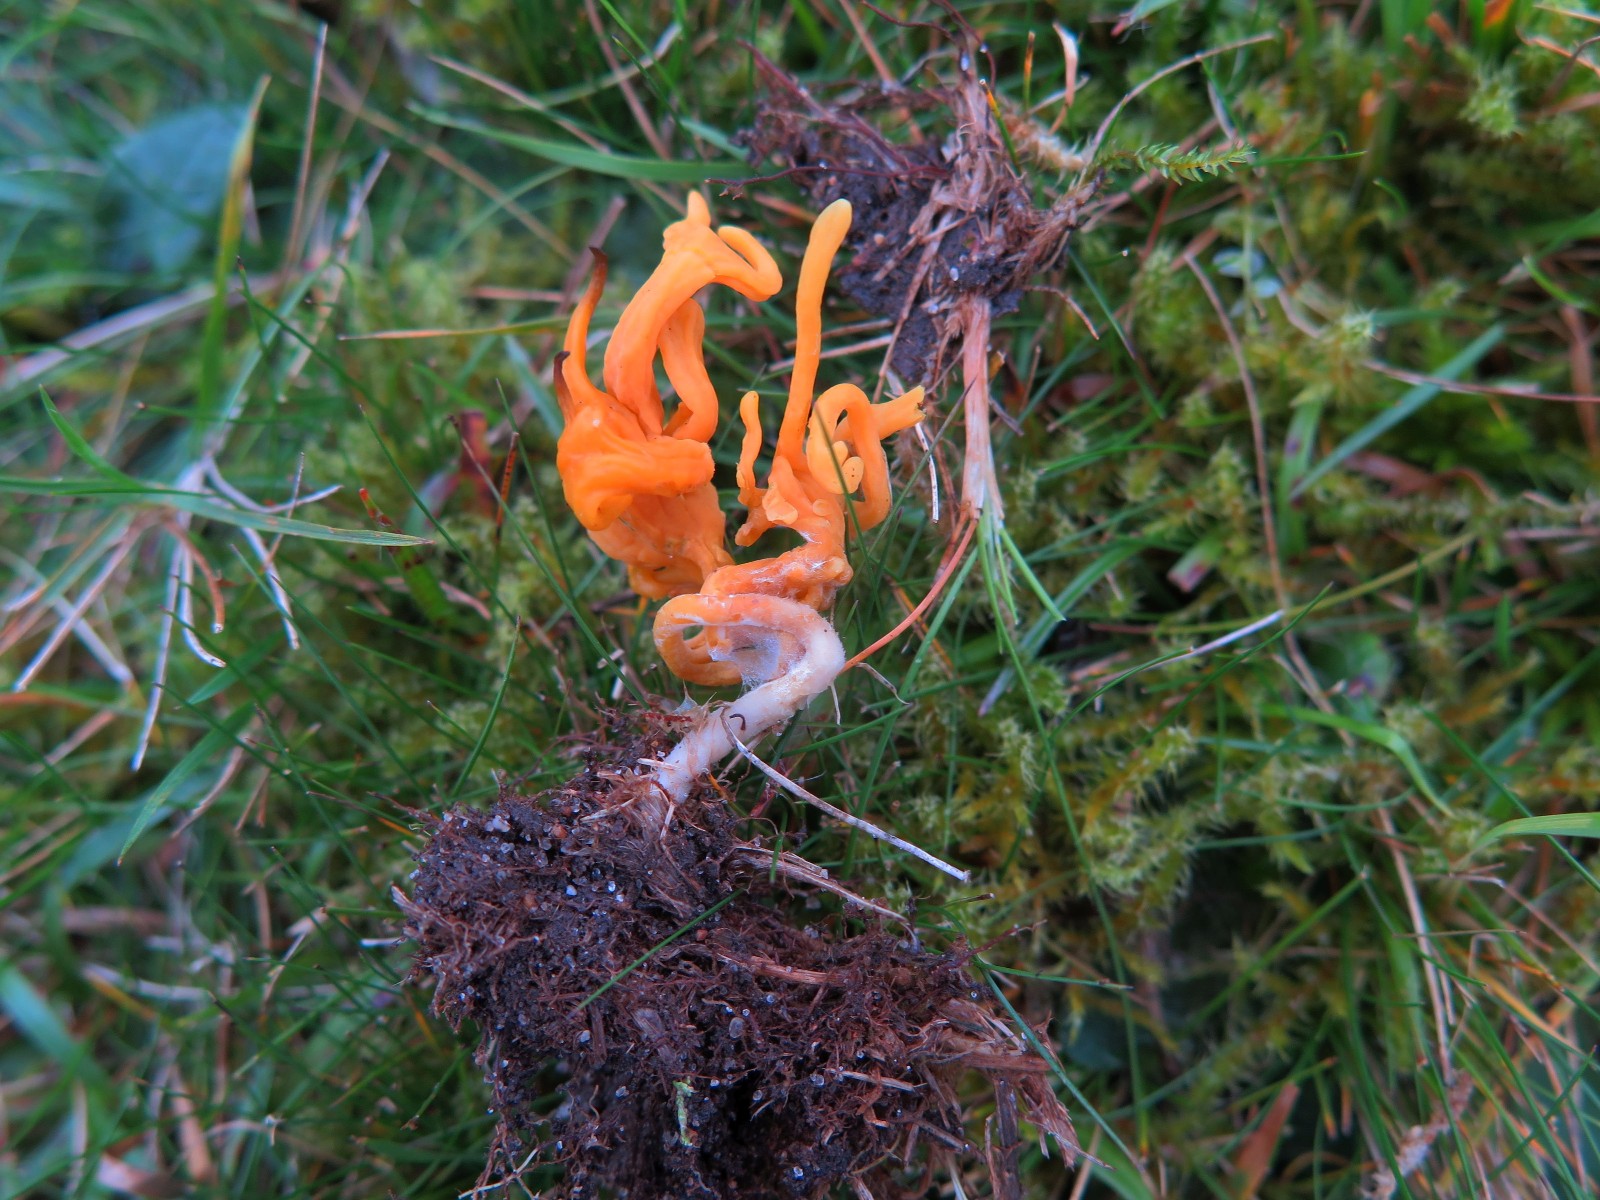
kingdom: Fungi
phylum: Basidiomycota
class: Agaricomycetes
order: Agaricales
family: Clavariaceae
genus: Clavulinopsis
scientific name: Clavulinopsis corniculata
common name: eng-køllesvamp
